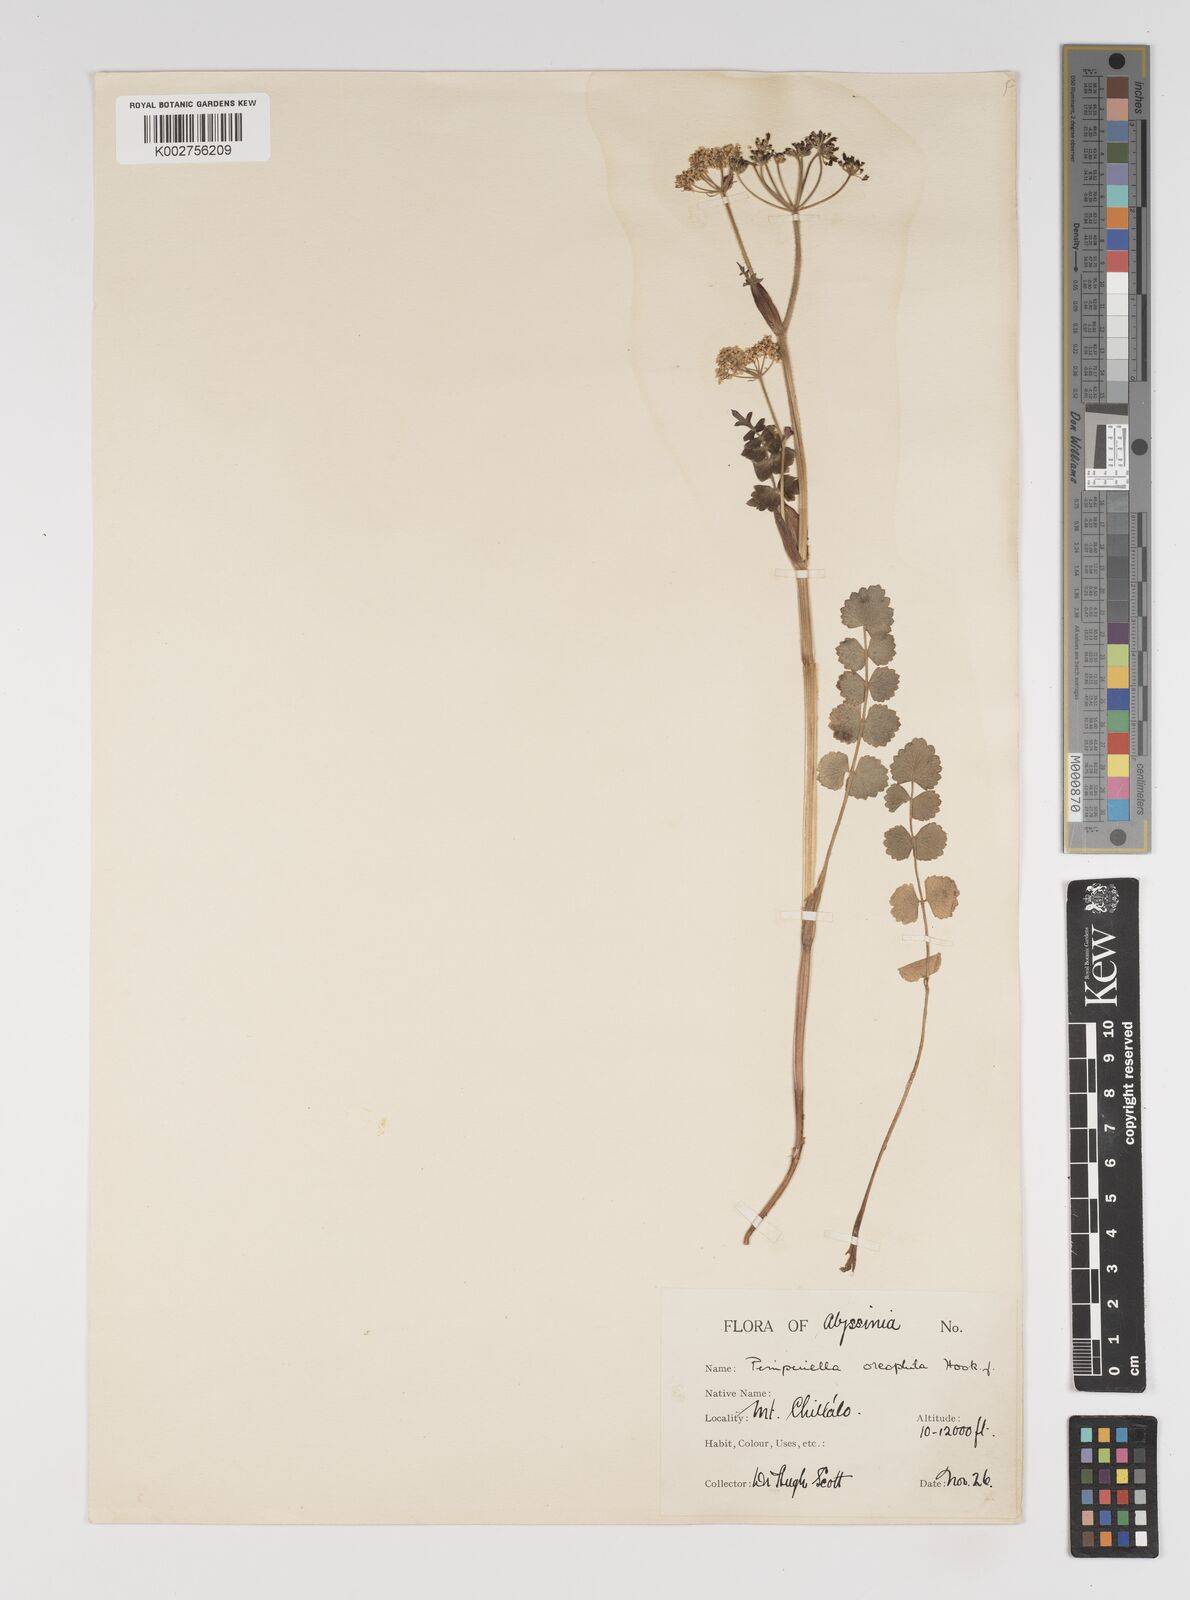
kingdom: Plantae
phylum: Tracheophyta
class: Magnoliopsida
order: Apiales
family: Apiaceae
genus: Pimpinella
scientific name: Pimpinella oreophila
